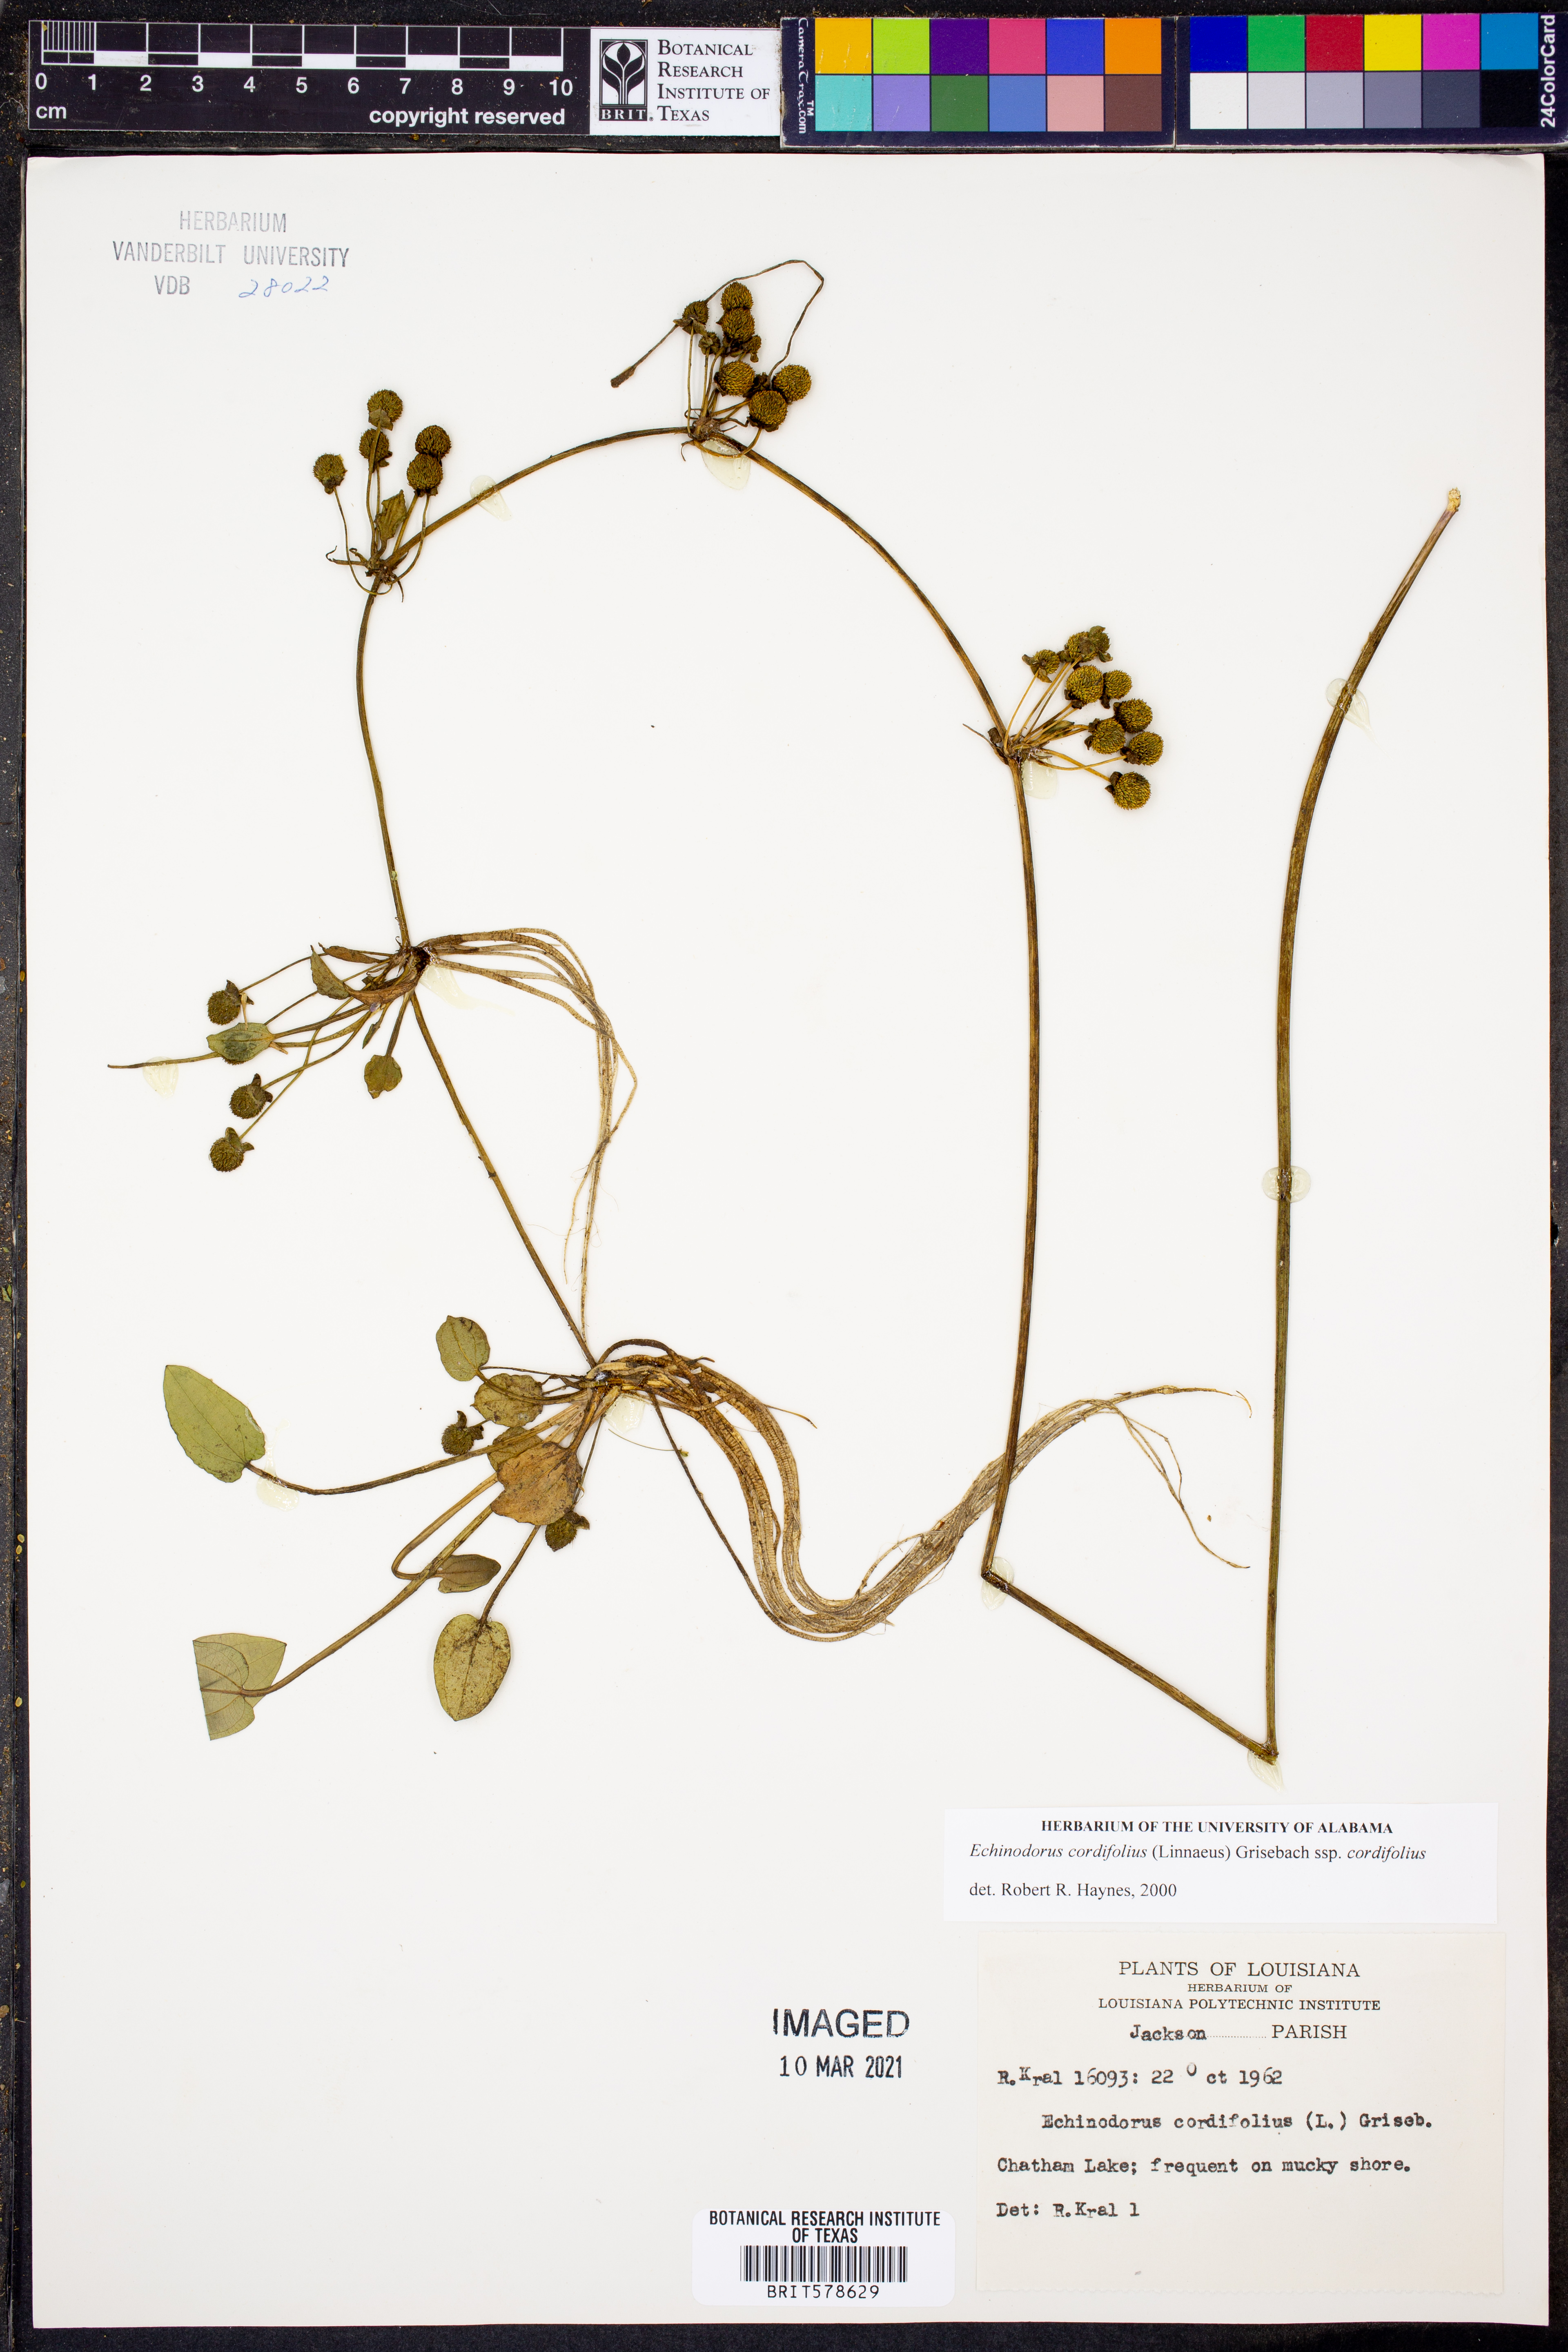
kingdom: Plantae
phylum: Tracheophyta
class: Liliopsida
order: Alismatales
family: Alismataceae
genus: Aquarius
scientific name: Aquarius cordifolius
